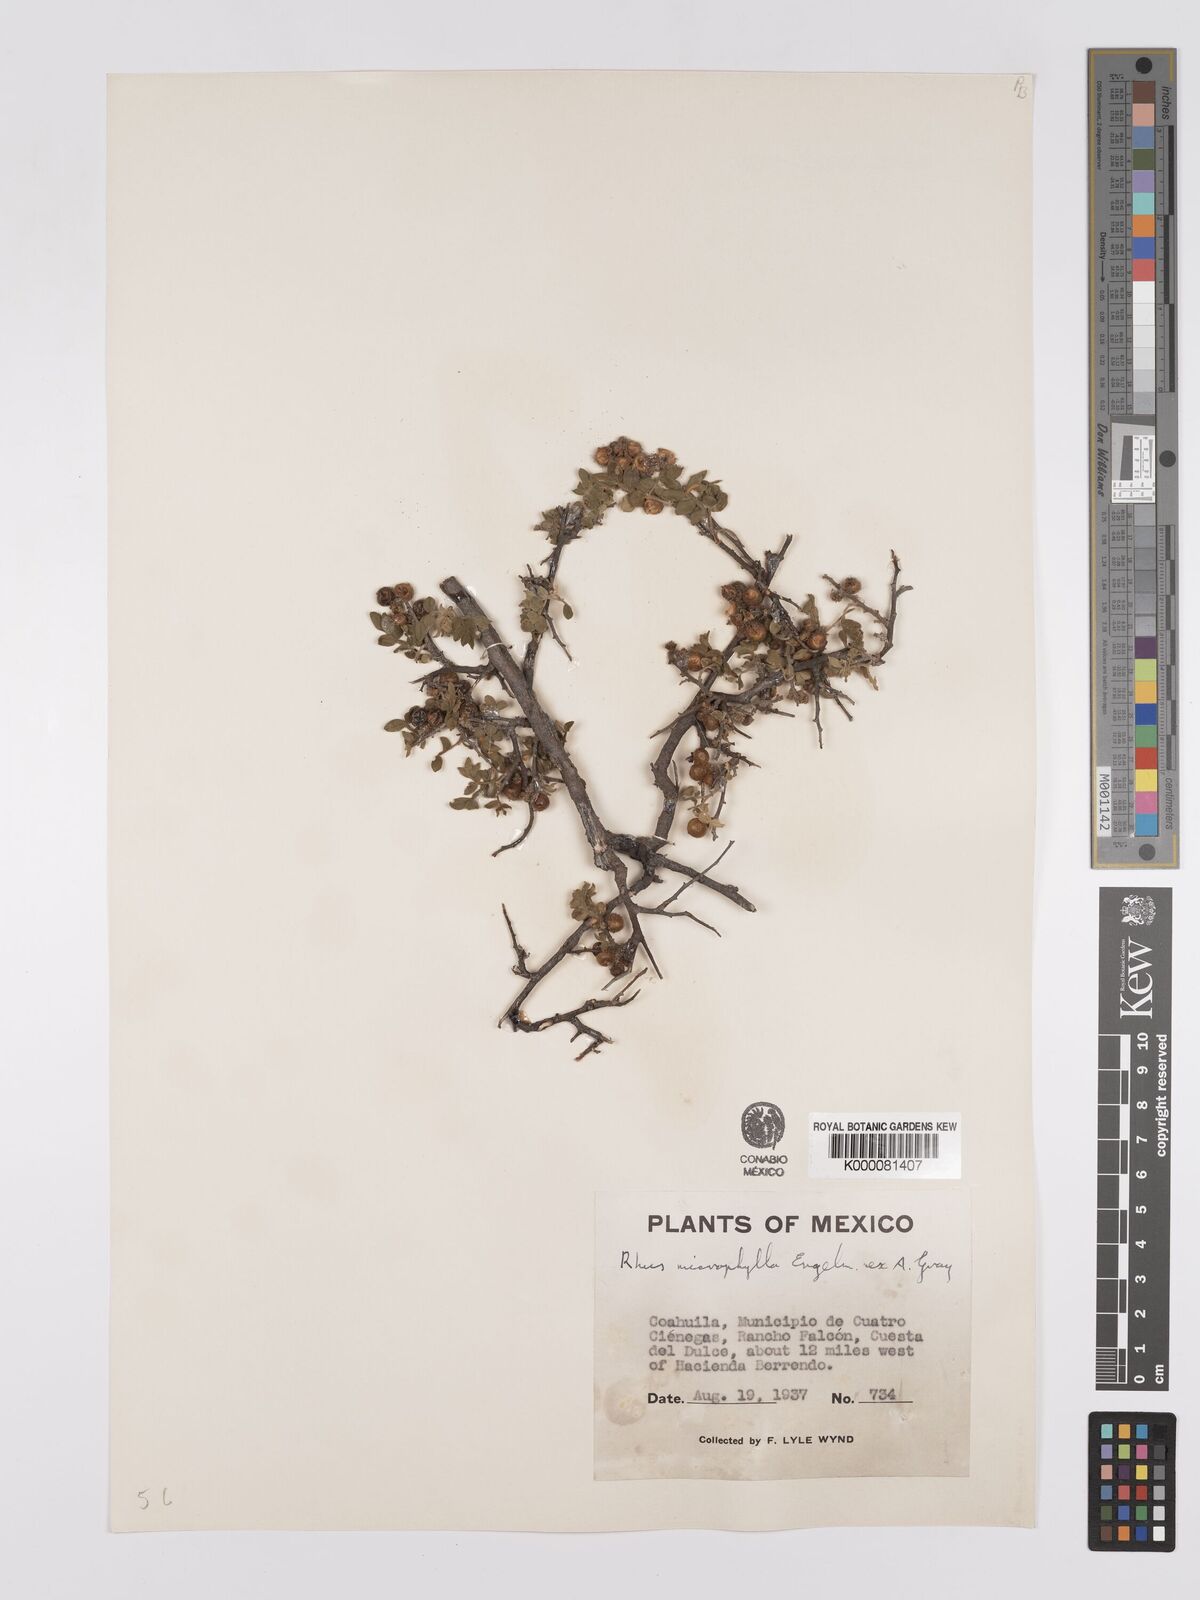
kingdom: Plantae
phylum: Tracheophyta
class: Magnoliopsida
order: Sapindales
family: Anacardiaceae
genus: Rhus
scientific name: Rhus
